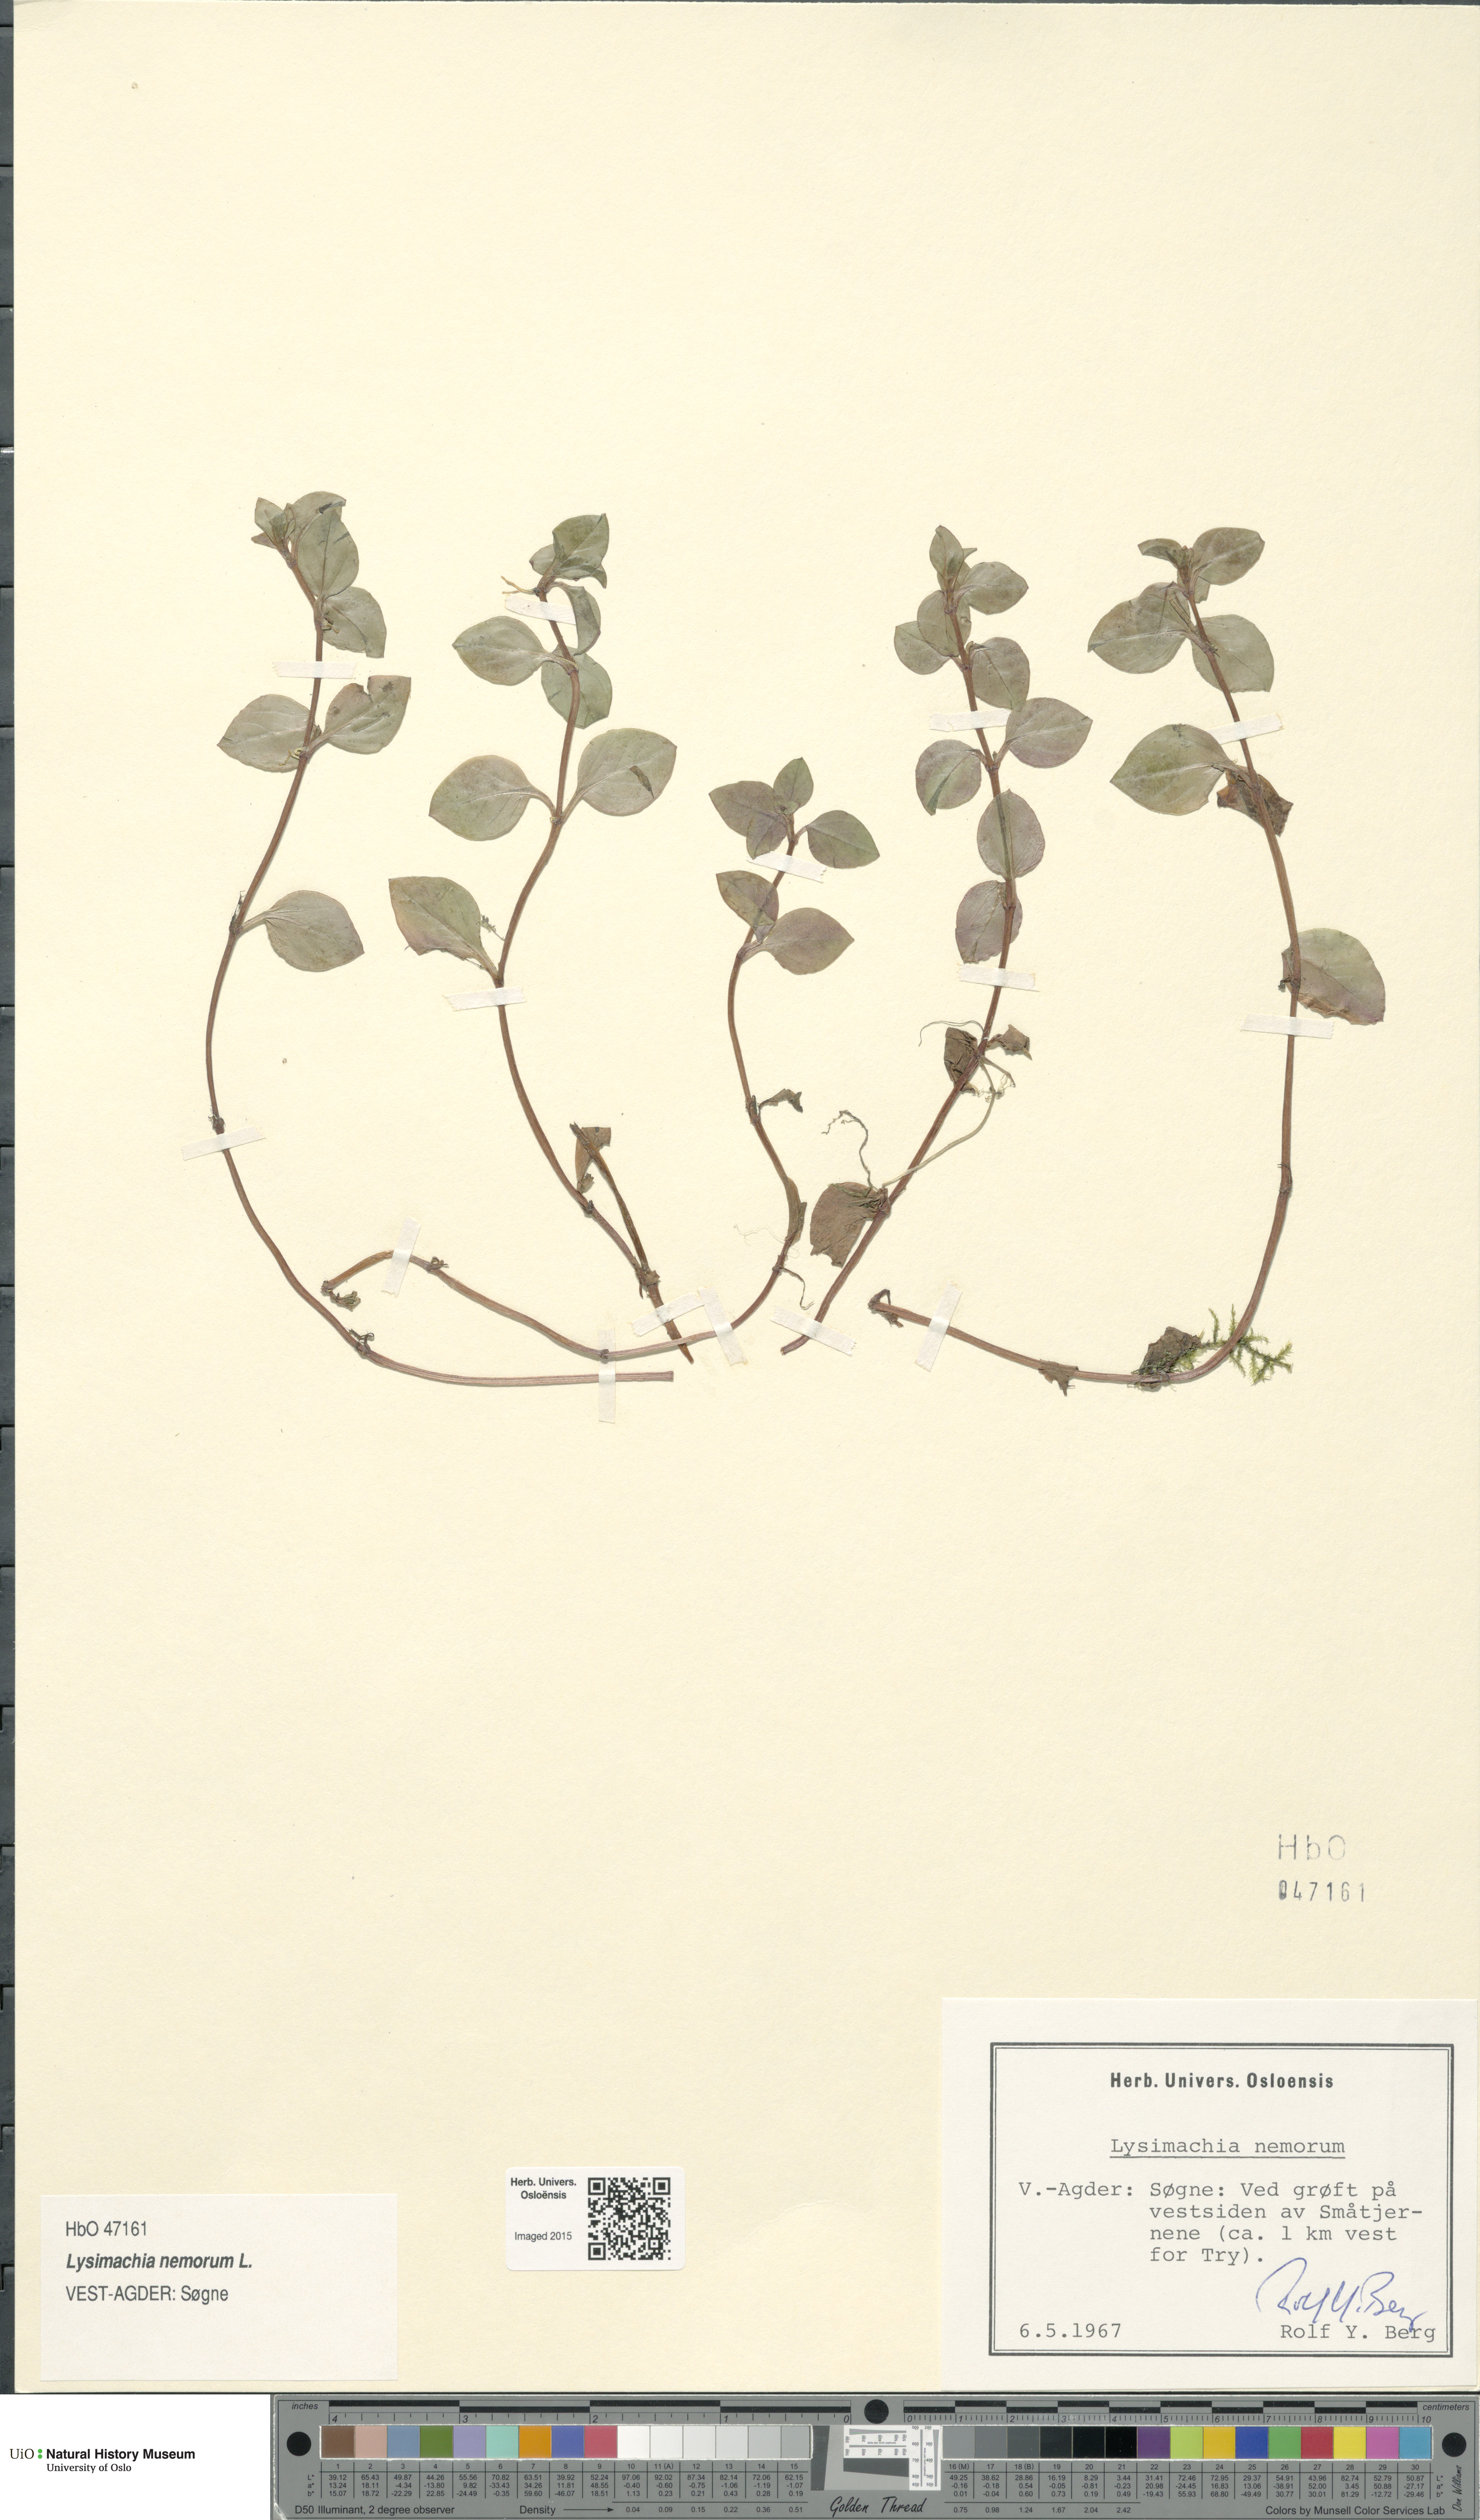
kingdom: Plantae
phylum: Tracheophyta
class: Magnoliopsida
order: Ericales
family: Primulaceae
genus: Lysimachia
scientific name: Lysimachia nemorum
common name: Yellow pimpernel
